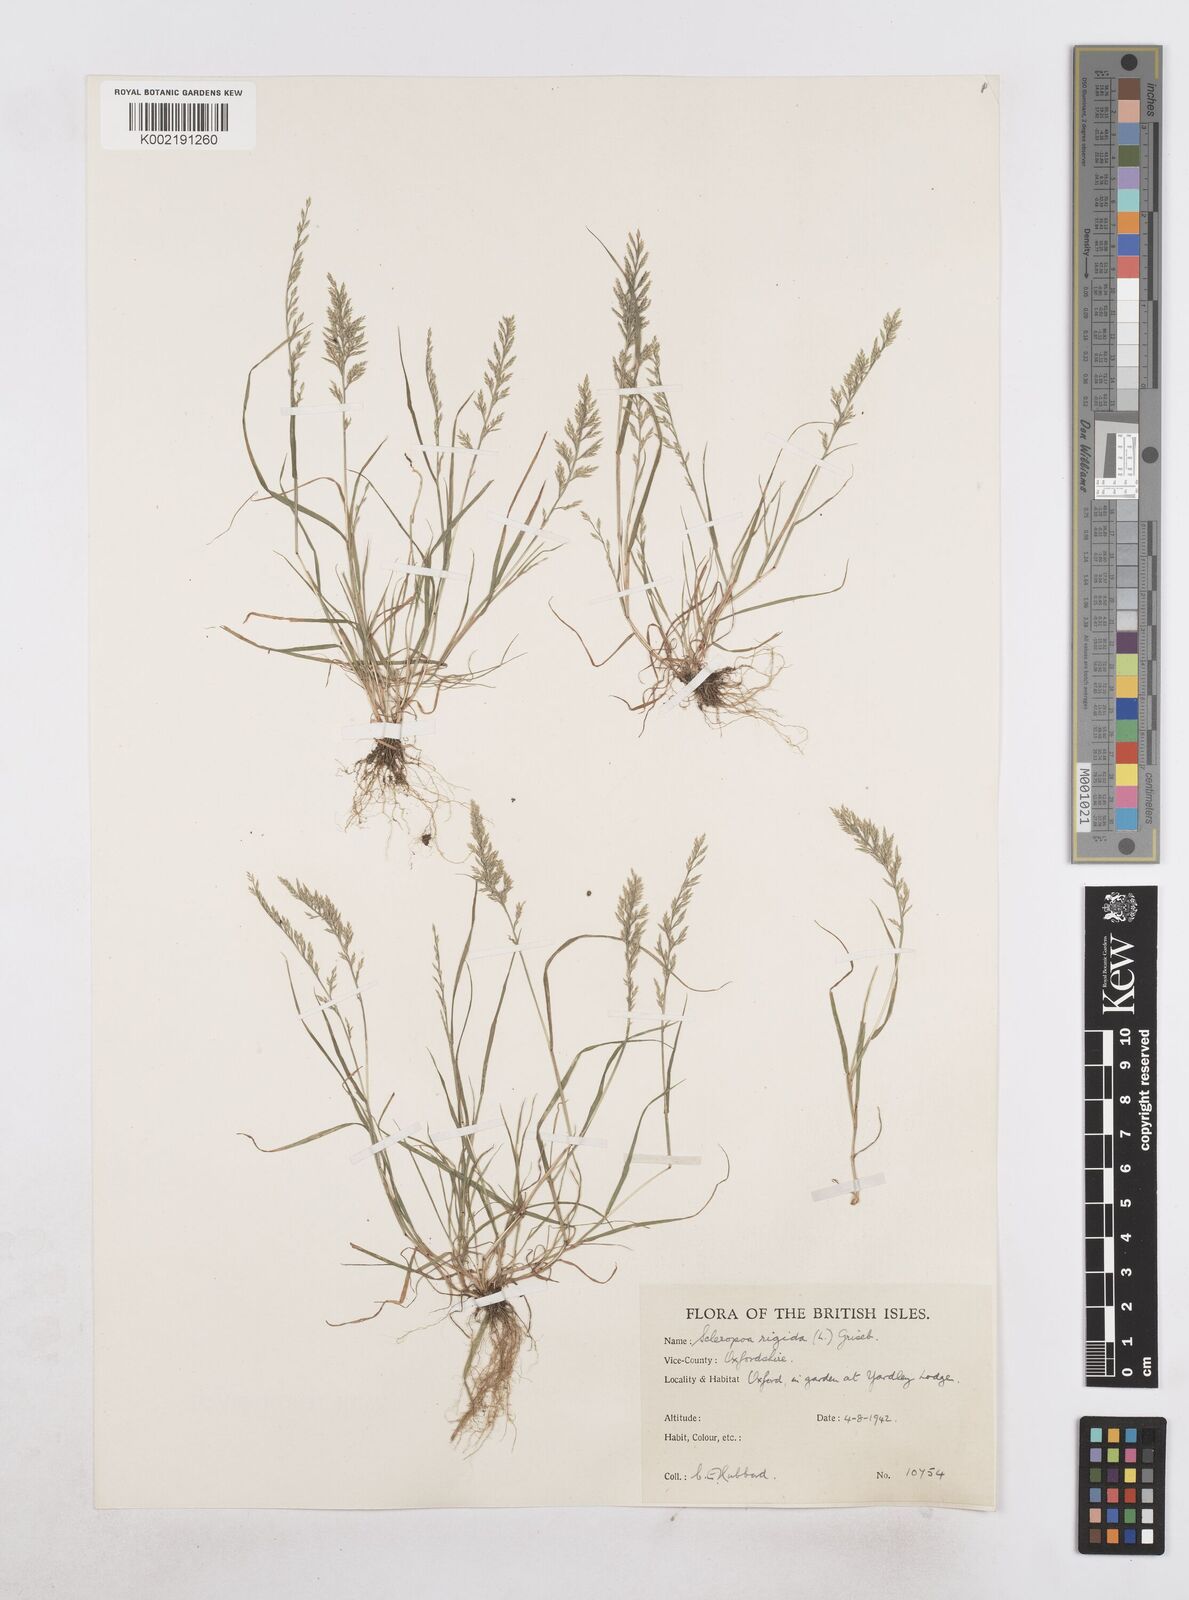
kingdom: Plantae
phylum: Tracheophyta
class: Liliopsida
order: Poales
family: Poaceae
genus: Catapodium
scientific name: Catapodium rigidum
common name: Fern-grass
